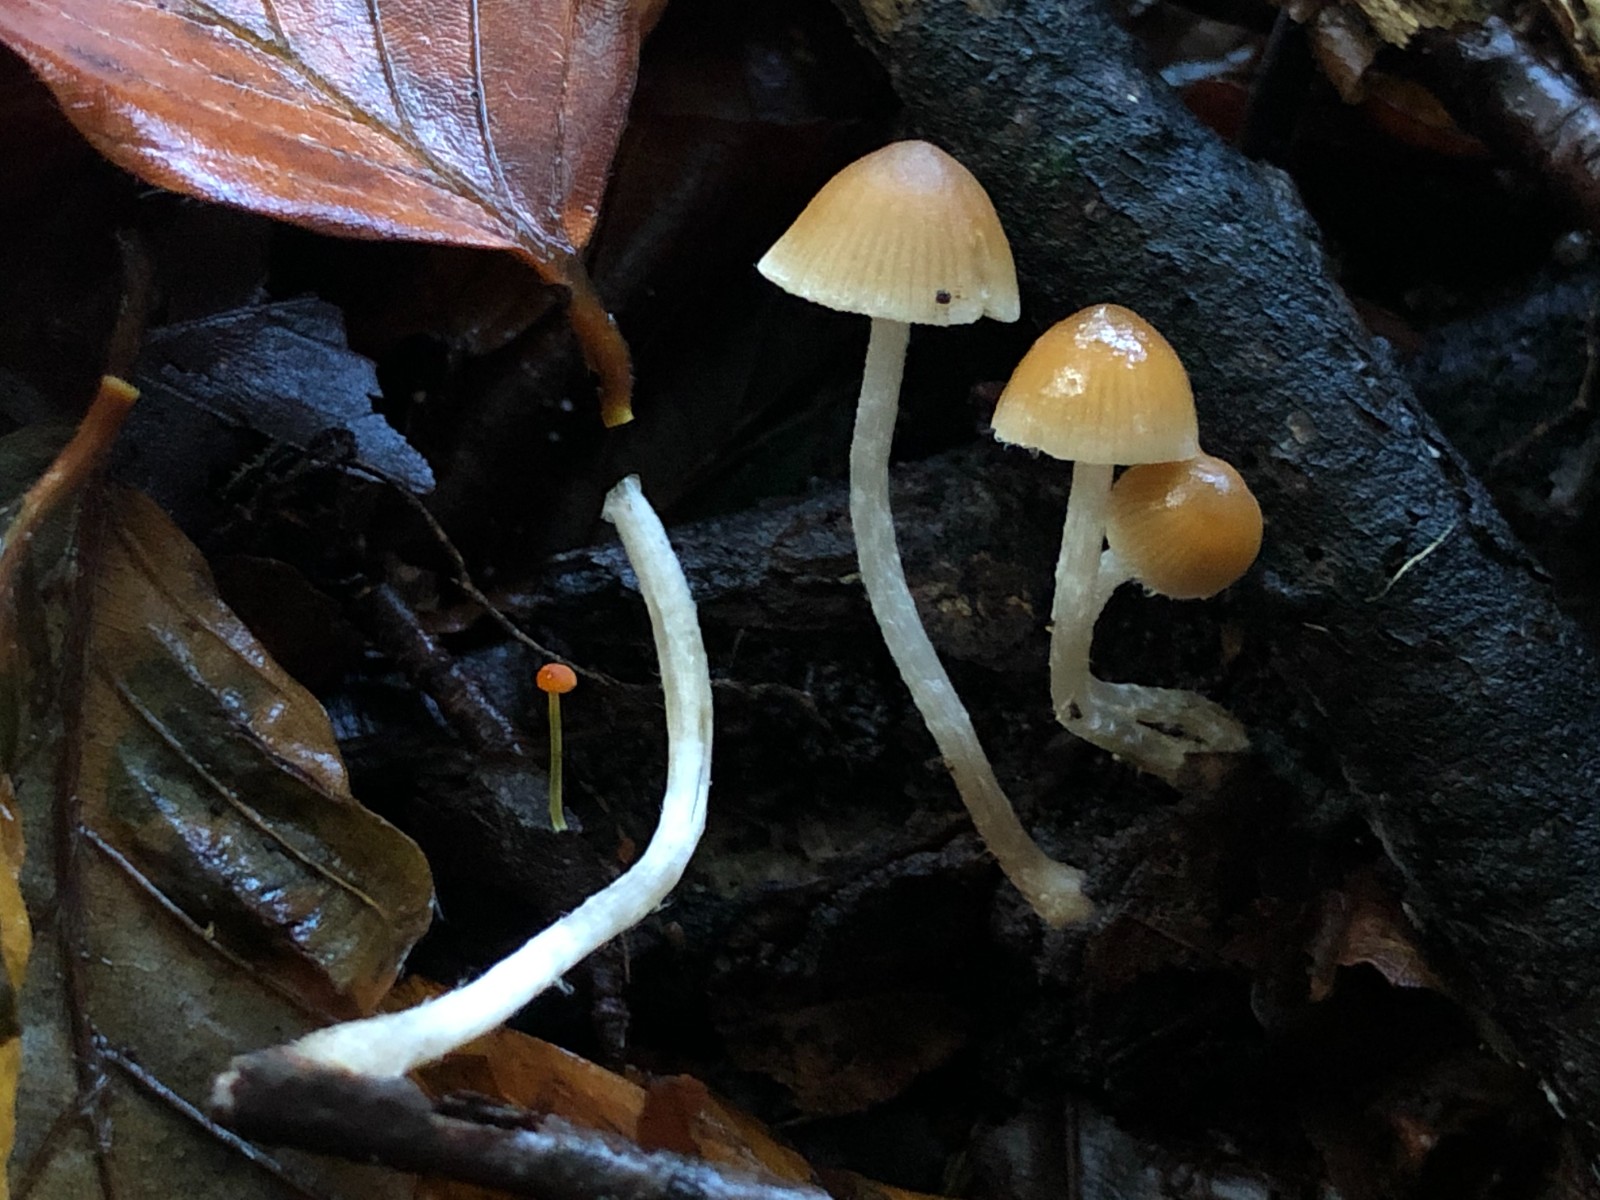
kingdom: Fungi
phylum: Basidiomycota
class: Agaricomycetes
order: Agaricales
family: Psathyrellaceae
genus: Psathyrella
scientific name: Psathyrella
